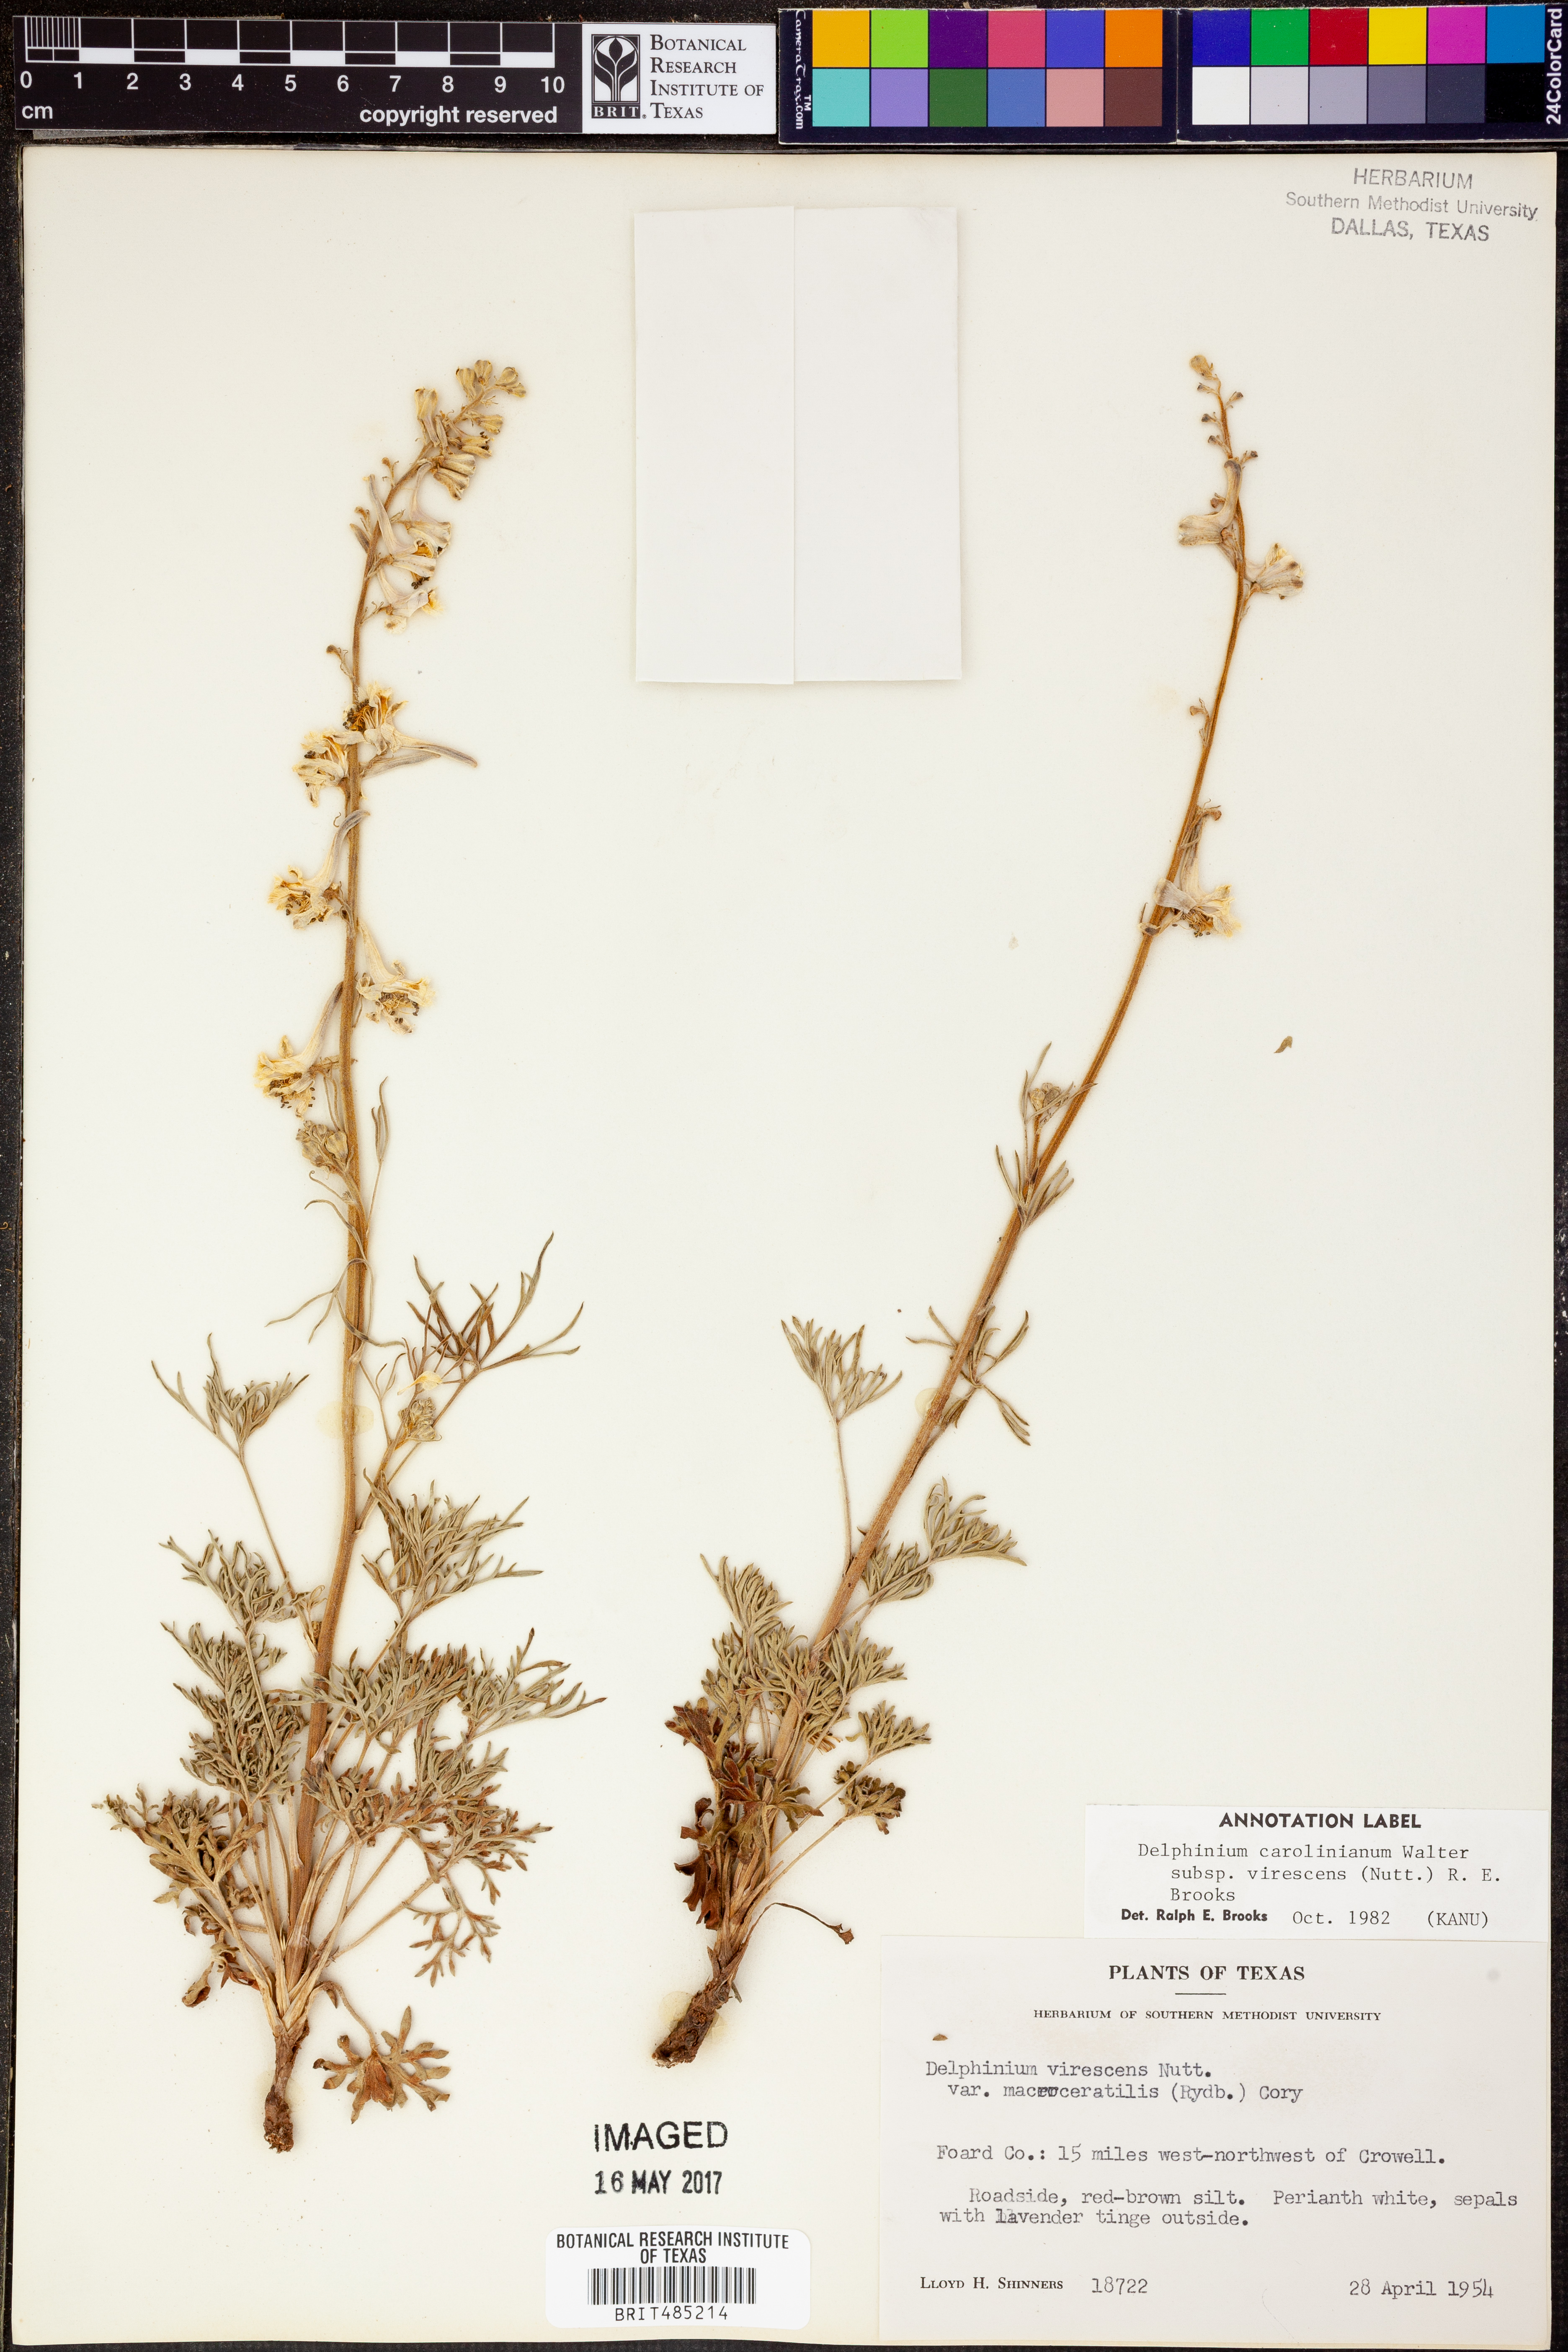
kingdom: Plantae
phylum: Tracheophyta
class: Magnoliopsida
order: Ranunculales
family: Ranunculaceae
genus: Delphinium
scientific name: Delphinium carolinianum
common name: Carolina larkspur
